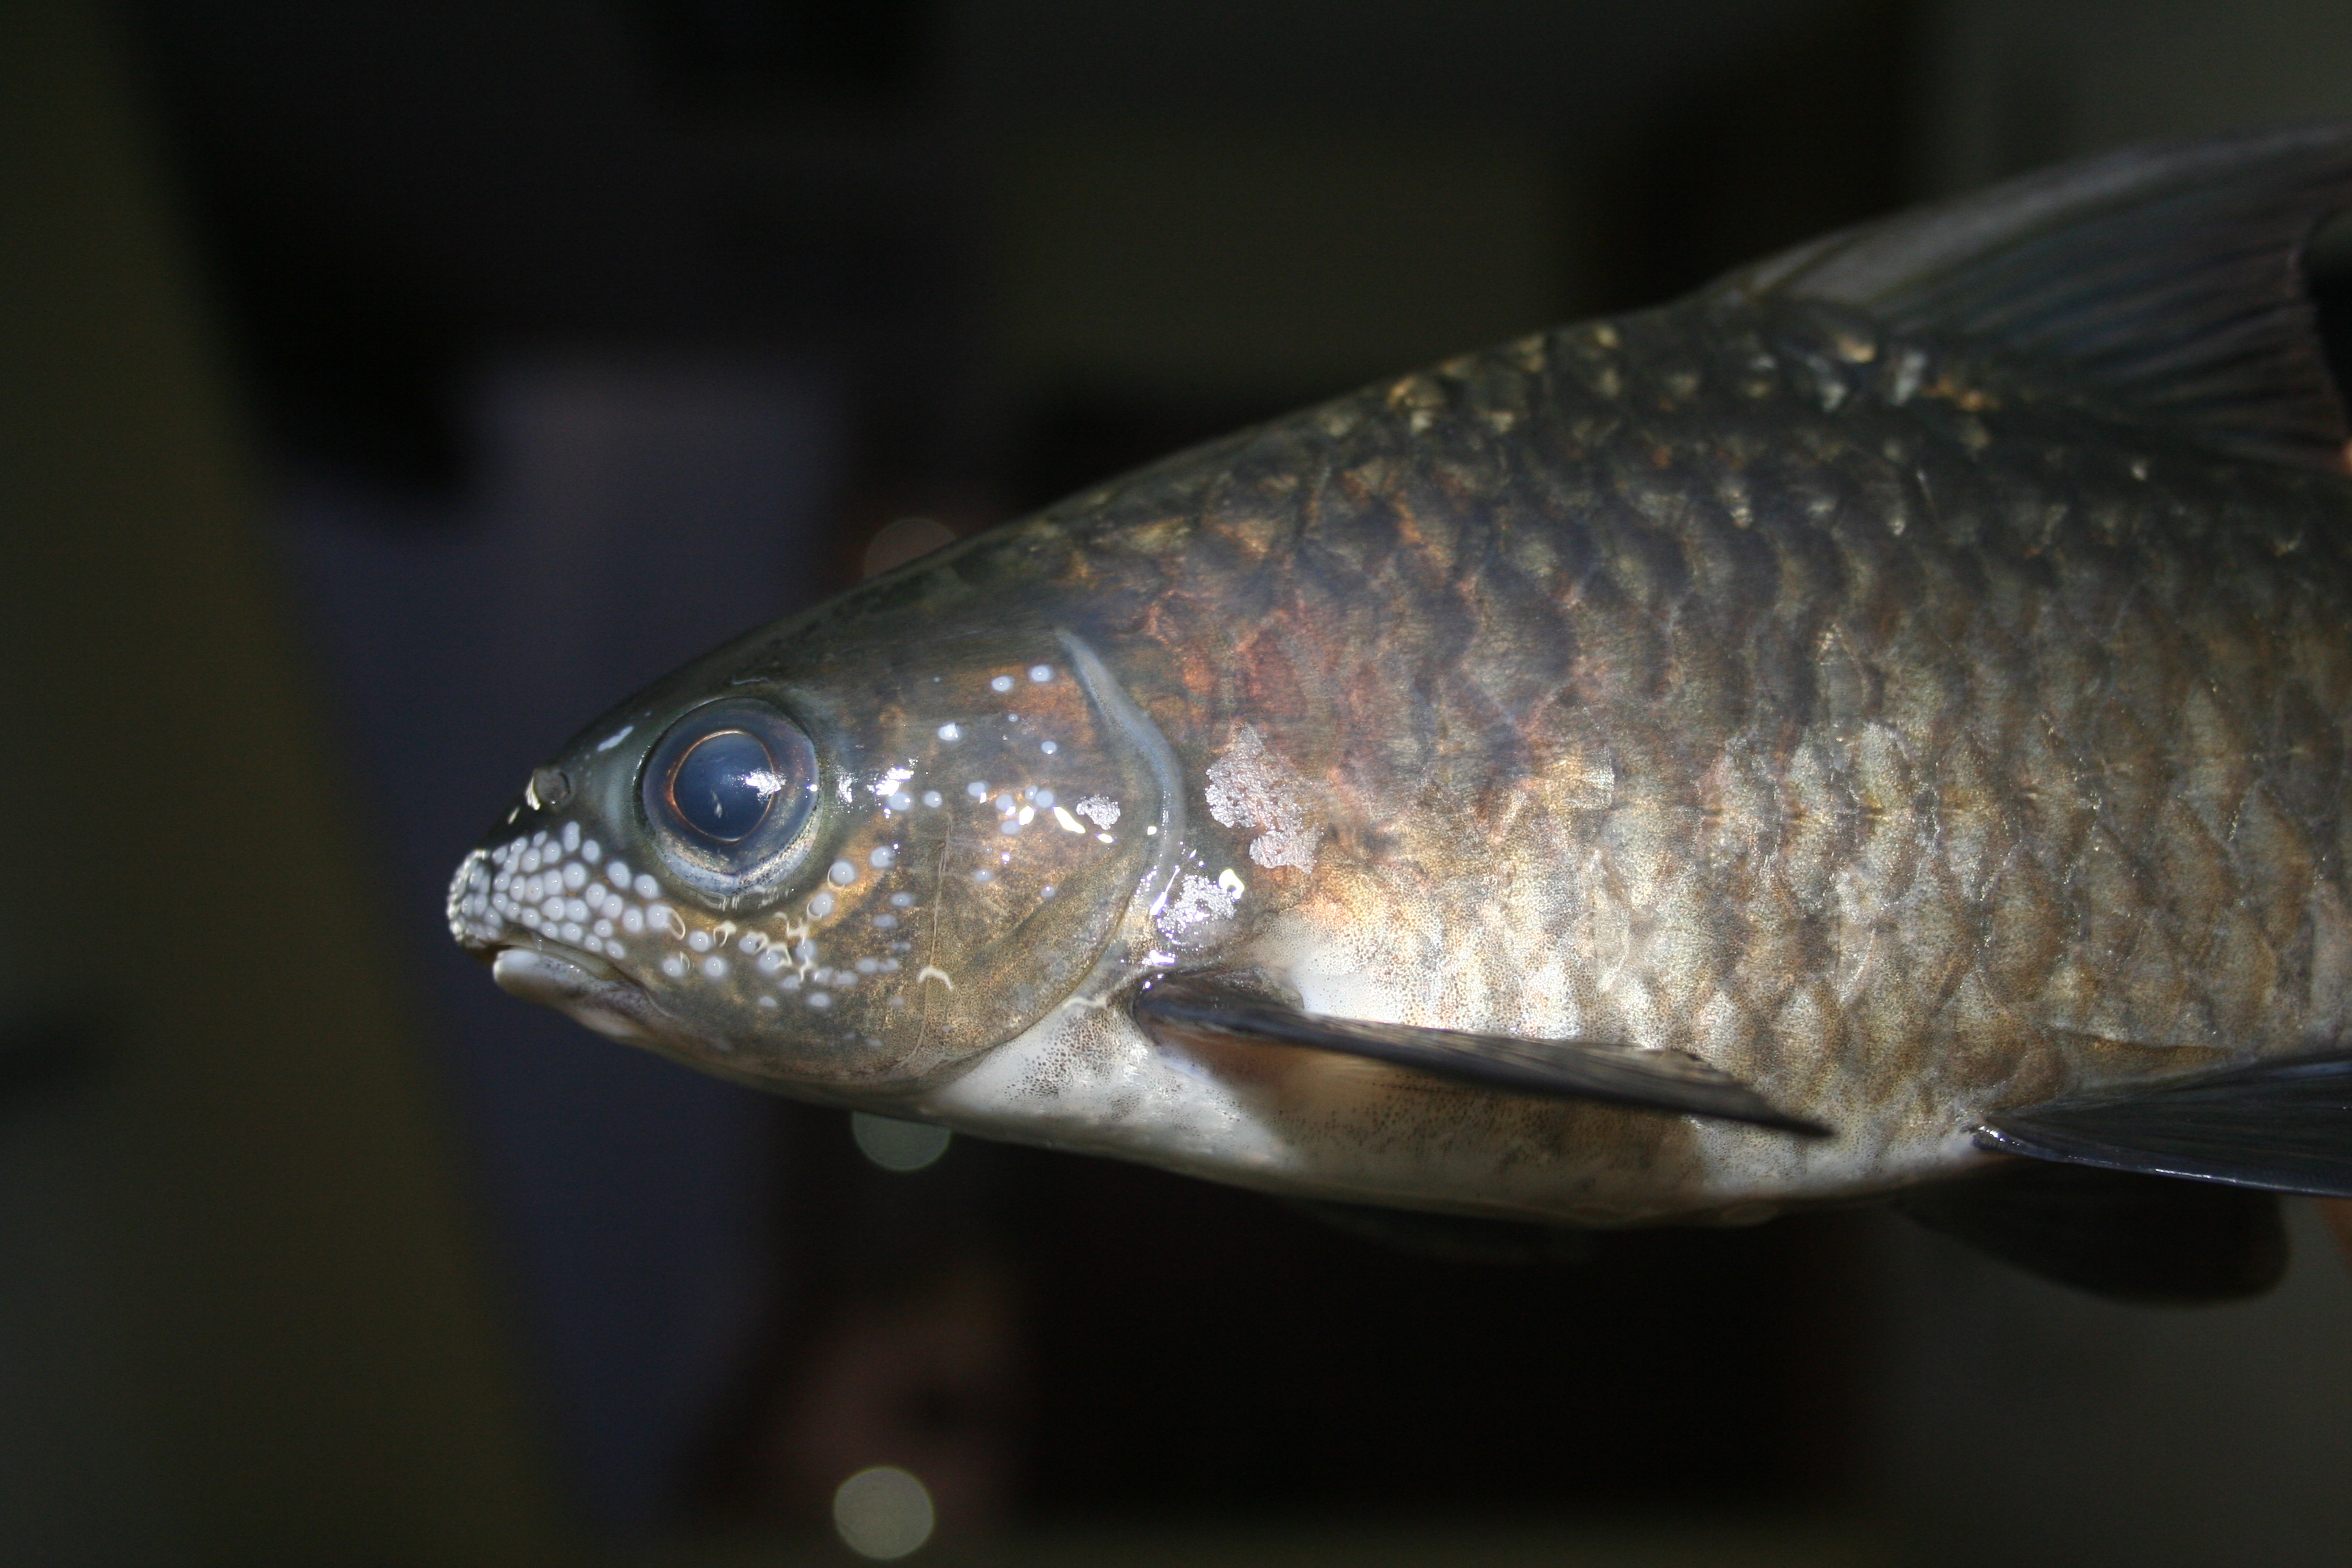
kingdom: Animalia
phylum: Chordata
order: Cypriniformes
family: Cyprinidae
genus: Labeobarbus
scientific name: Labeobarbus
